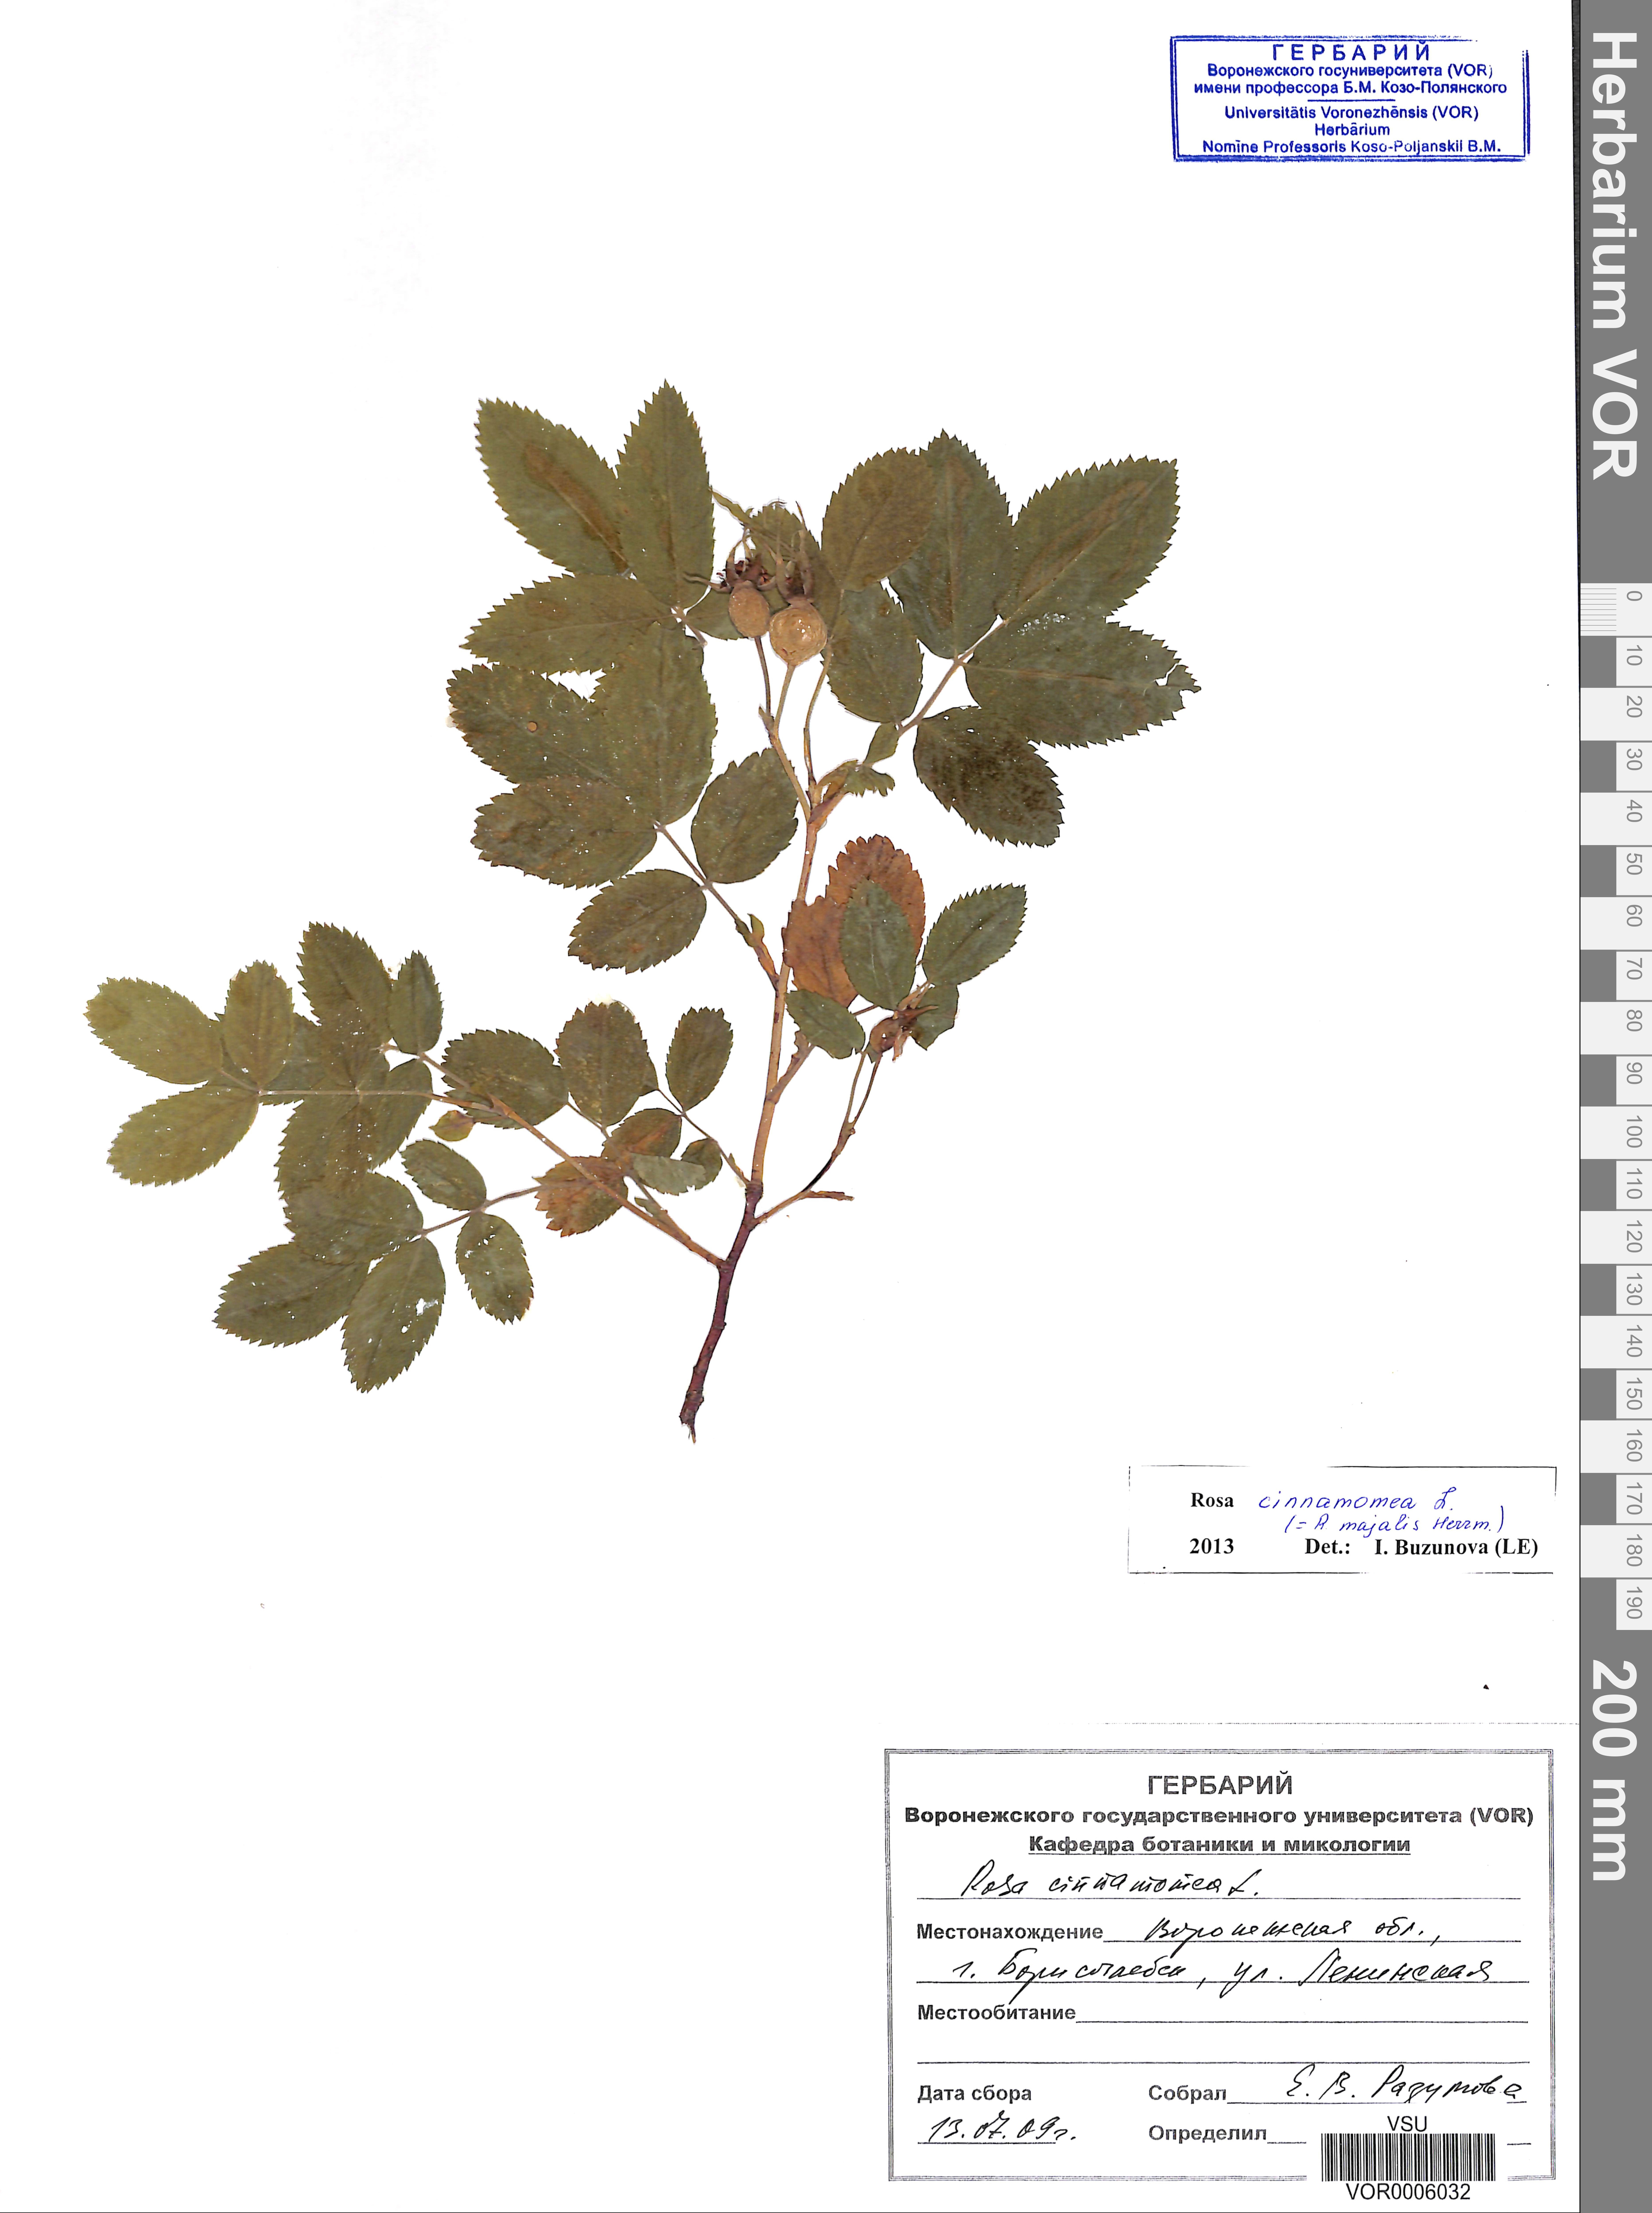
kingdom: Plantae
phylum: Tracheophyta
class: Magnoliopsida
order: Rosales
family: Rosaceae
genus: Rosa
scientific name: Rosa majalis
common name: Cinnamon rose
